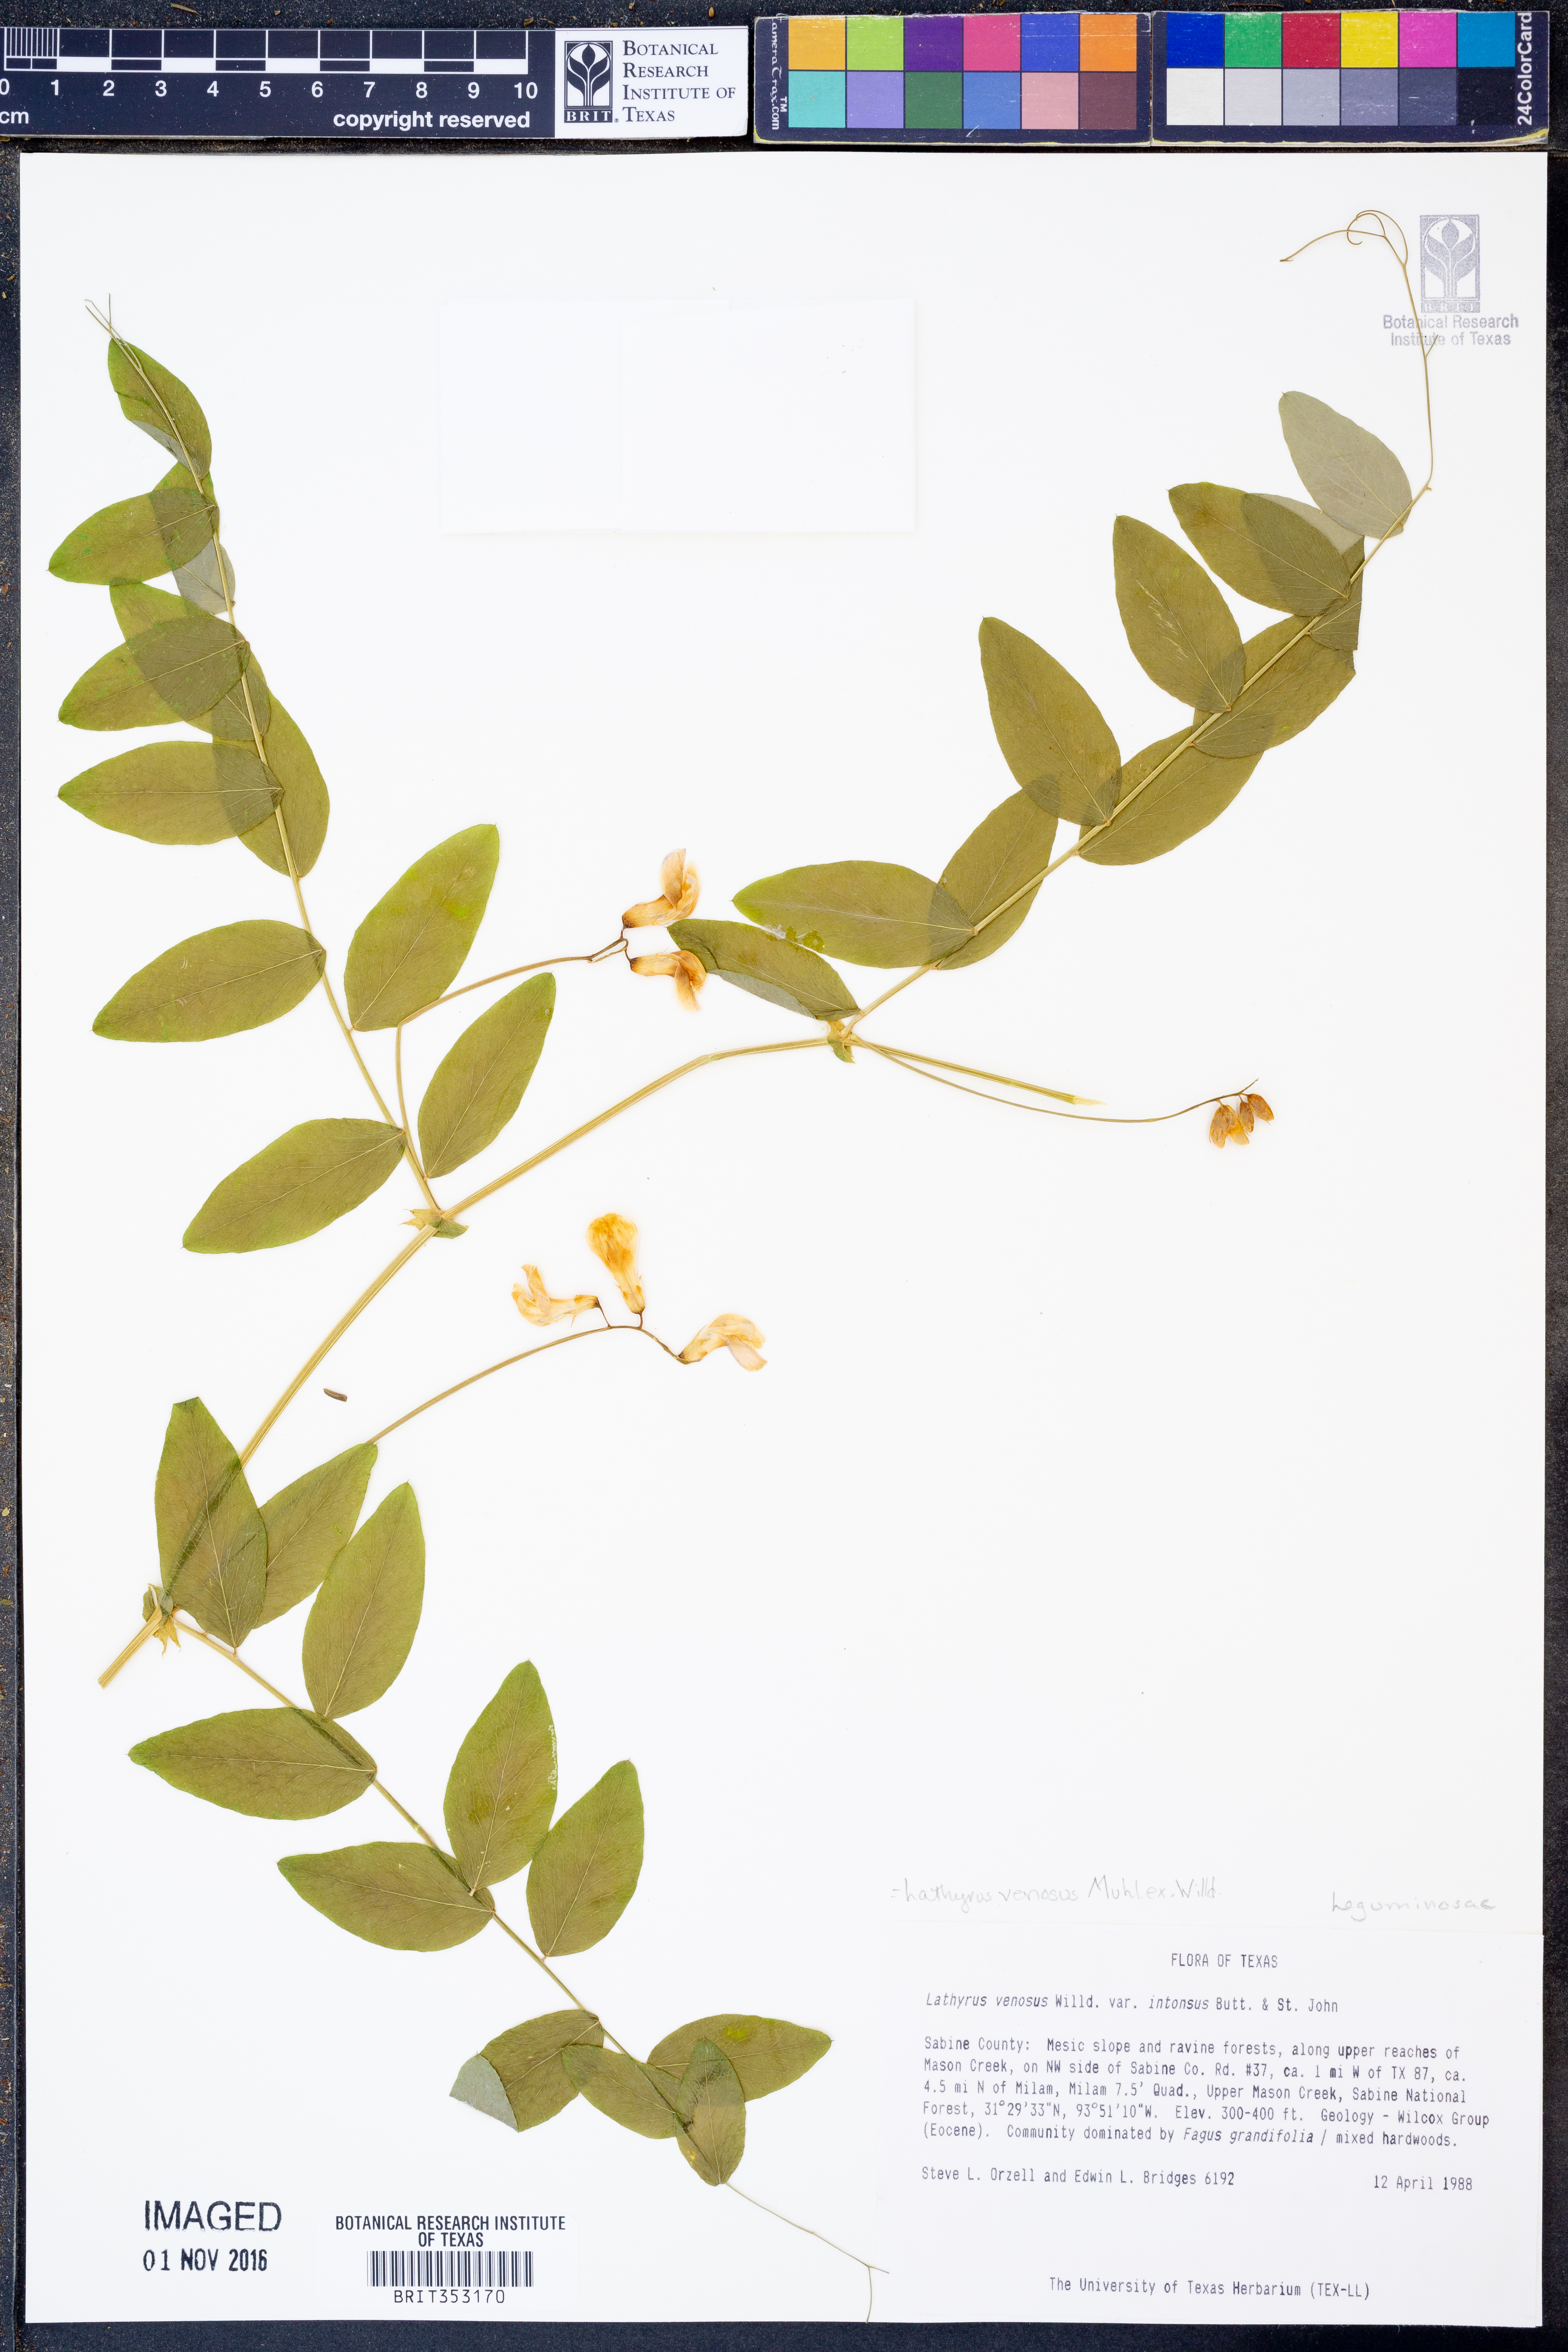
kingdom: Plantae
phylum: Tracheophyta
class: Magnoliopsida
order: Fabales
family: Fabaceae
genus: Lathyrus
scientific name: Lathyrus venosus
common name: Forest-pea
